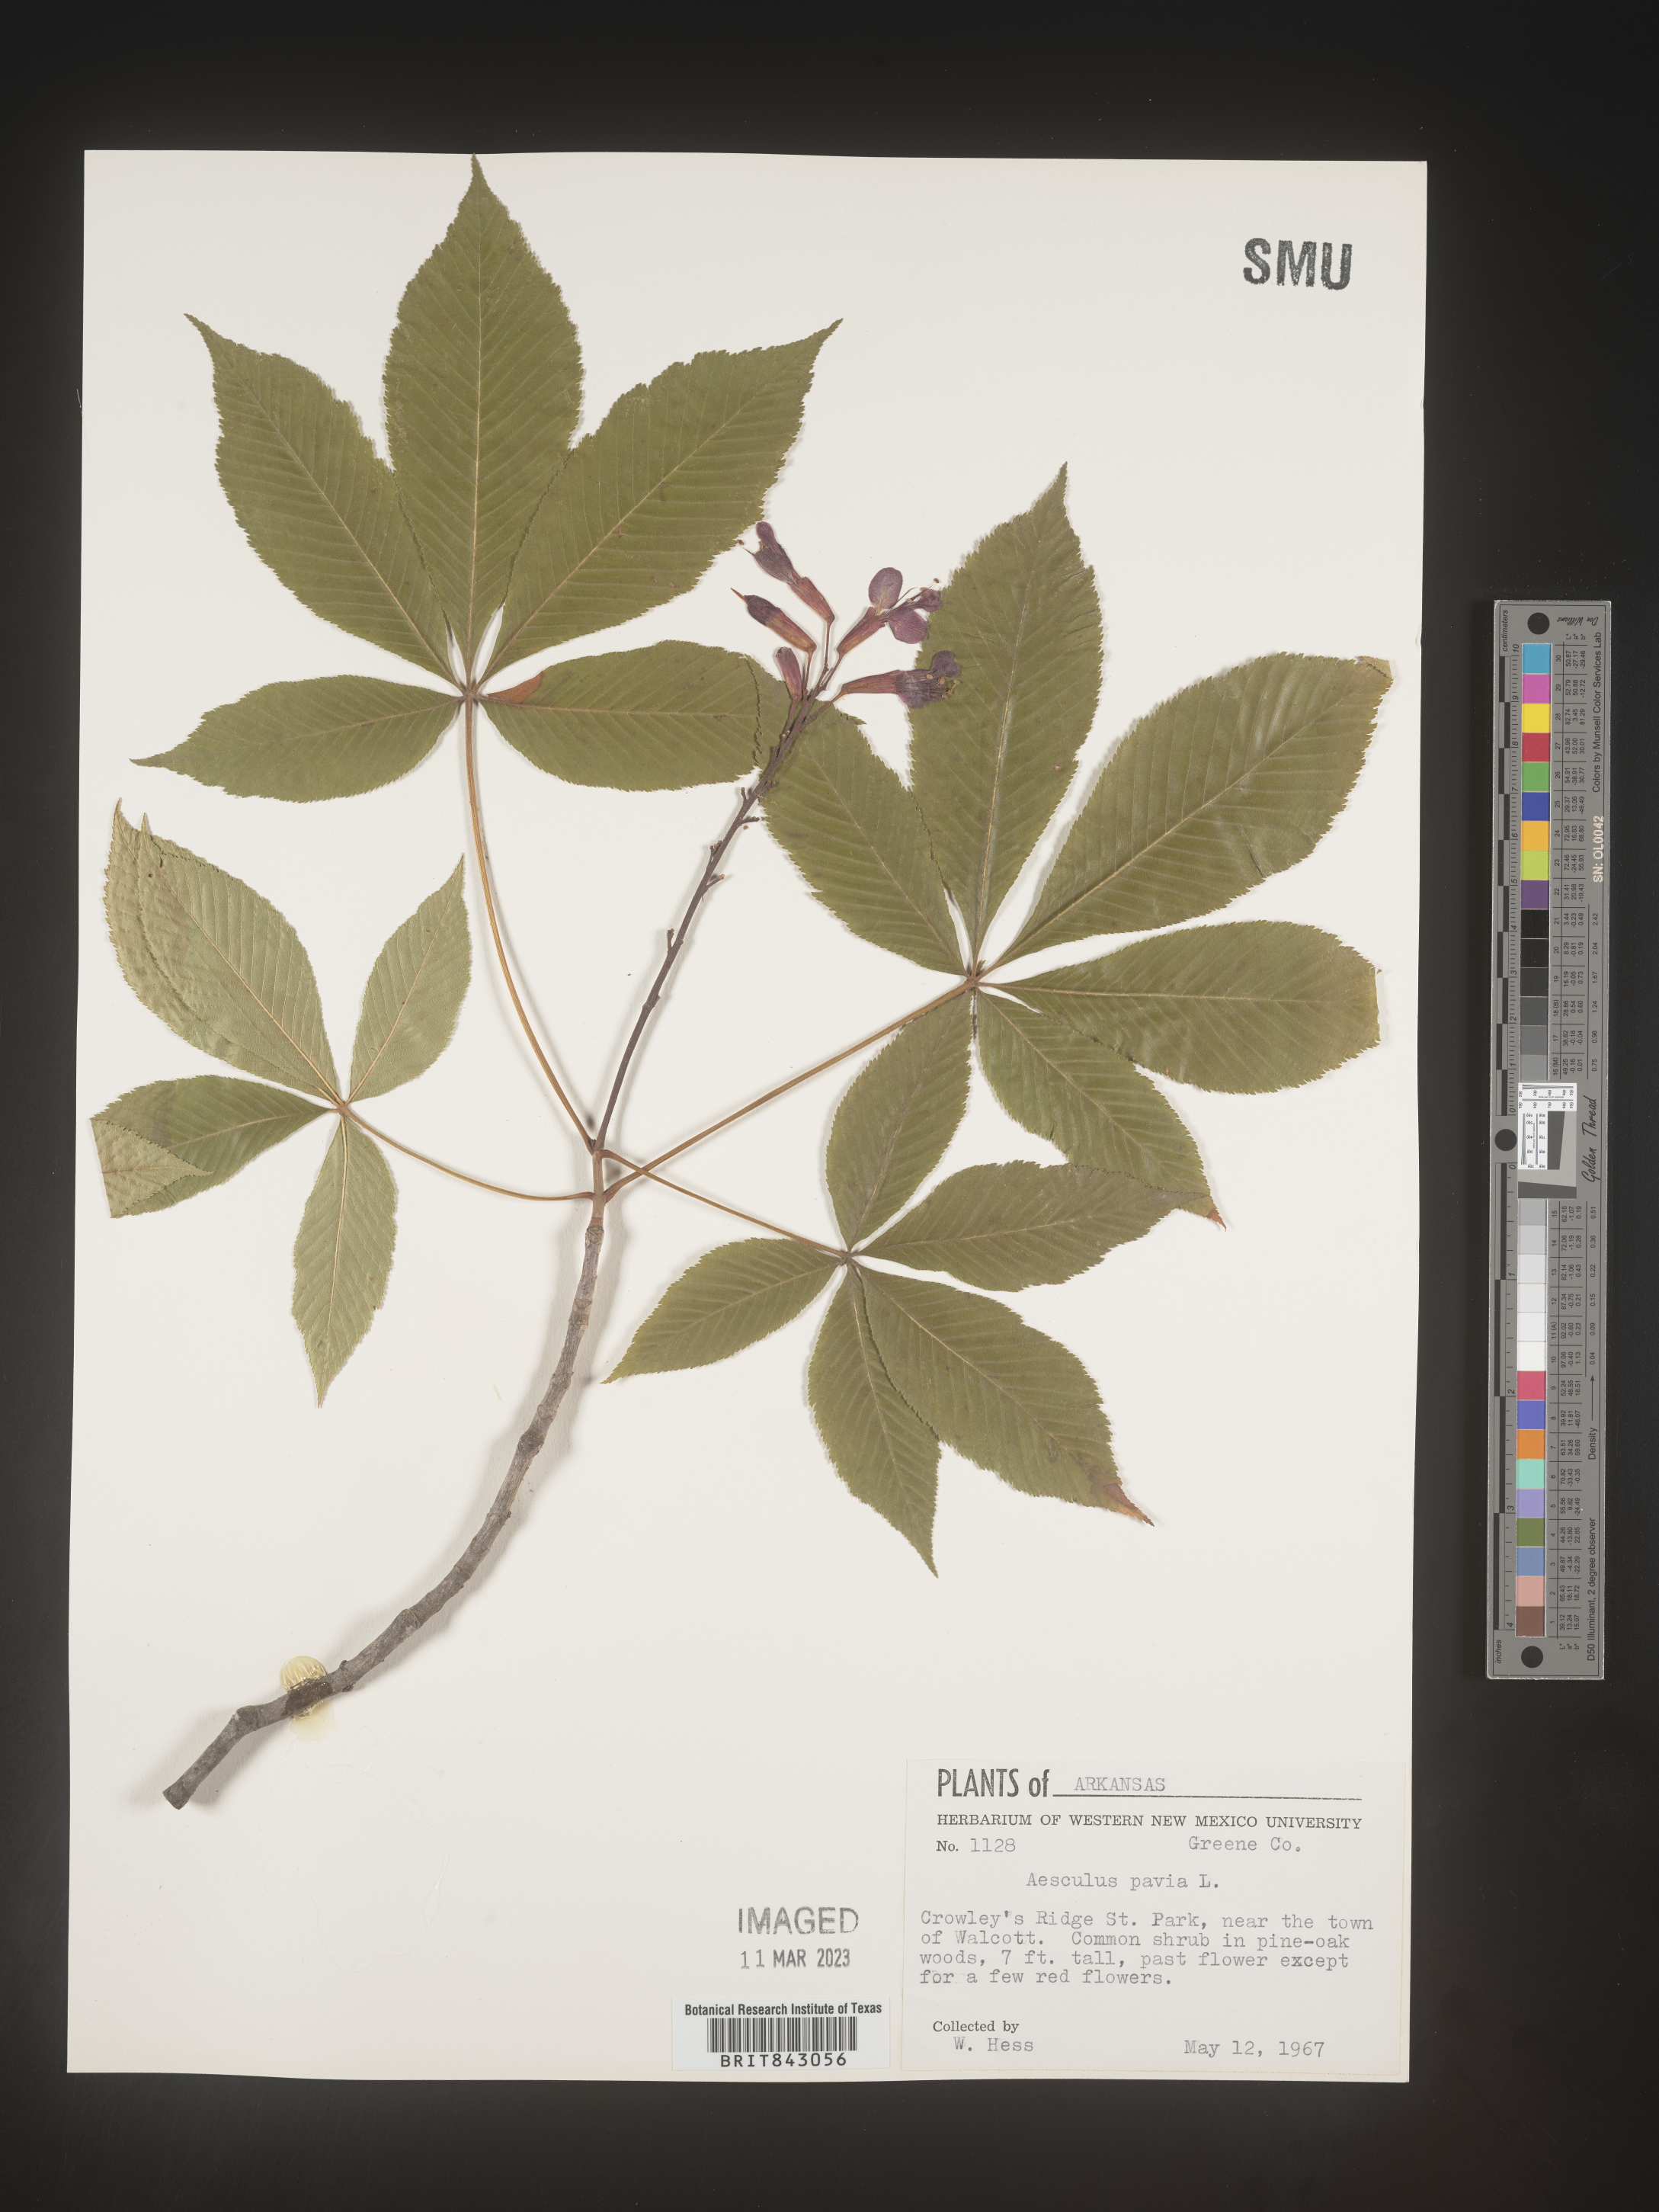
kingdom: Plantae
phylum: Tracheophyta
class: Magnoliopsida
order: Sapindales
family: Sapindaceae
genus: Aesculus
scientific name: Aesculus pavia
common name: Red buckeye
